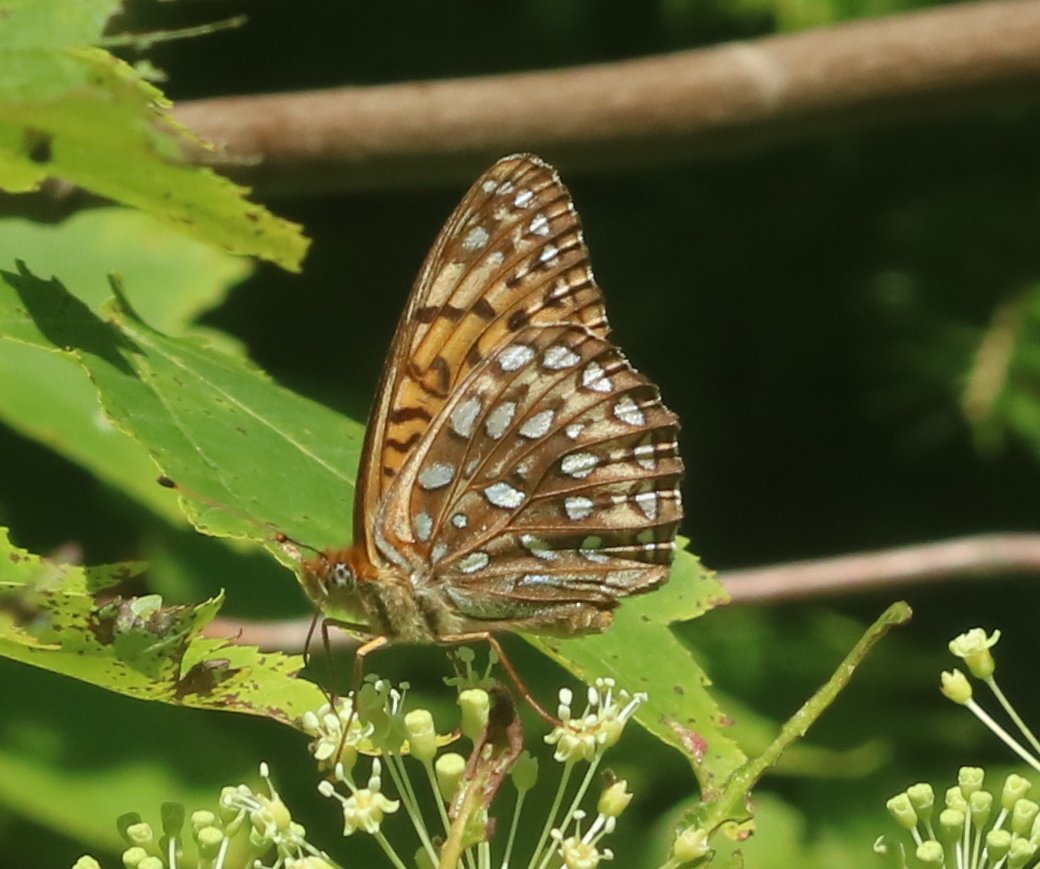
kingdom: Animalia
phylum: Arthropoda
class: Insecta
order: Lepidoptera
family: Nymphalidae
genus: Speyeria
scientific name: Speyeria atlantis
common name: Atlantis Fritillary
